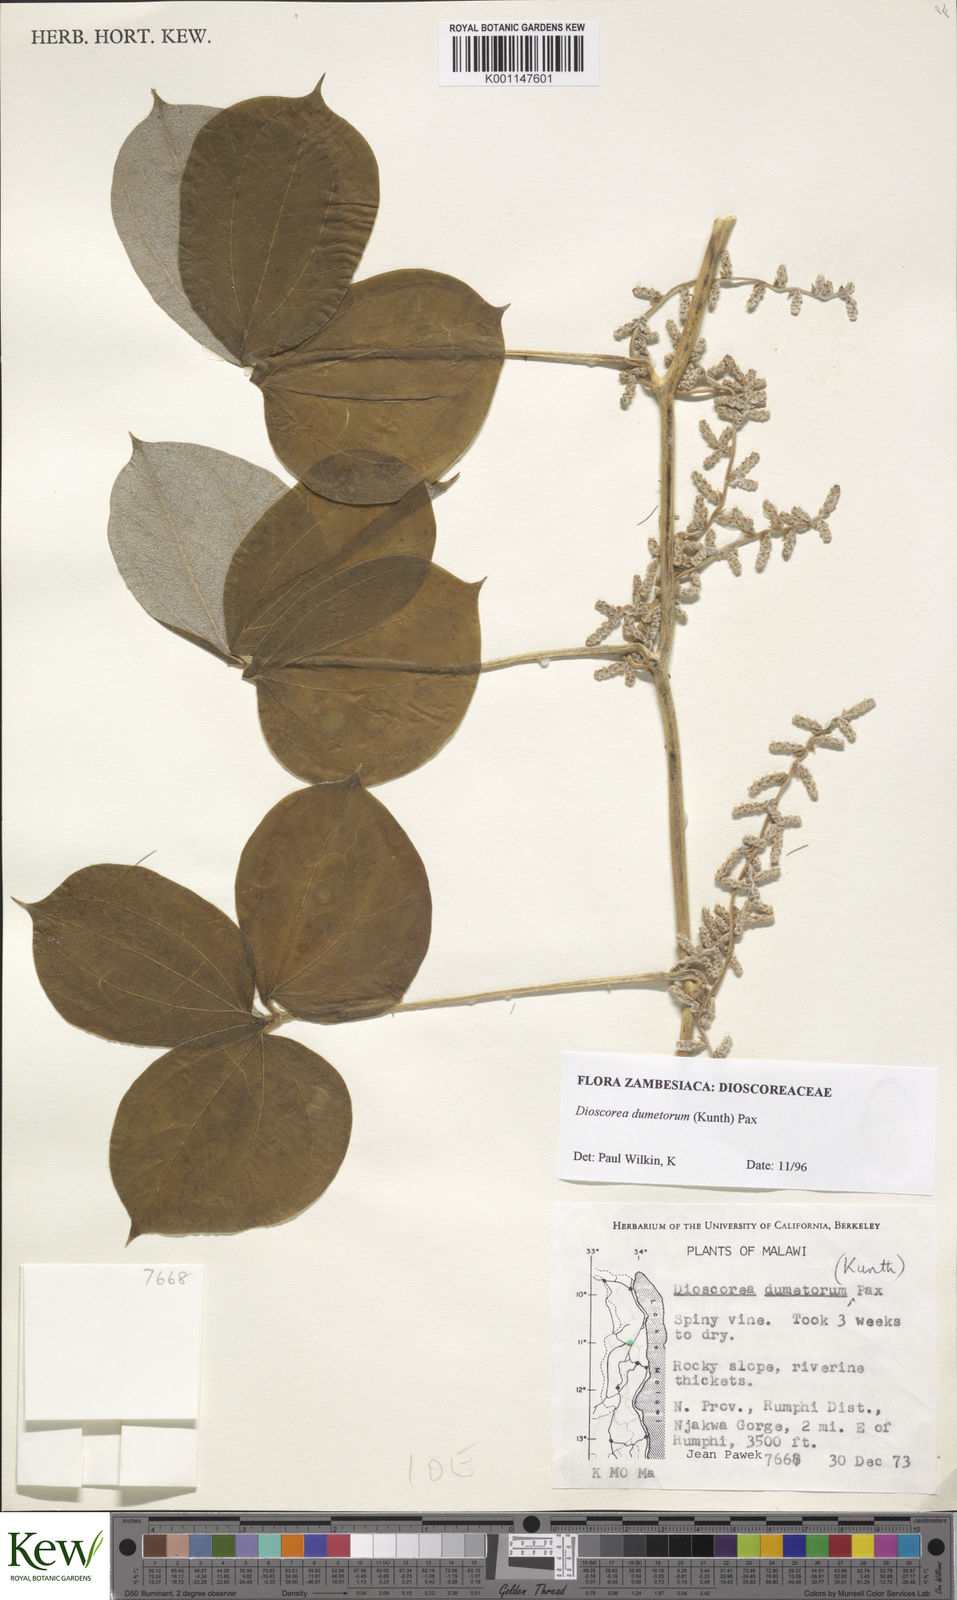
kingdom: Plantae
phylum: Tracheophyta
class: Liliopsida
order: Dioscoreales
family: Dioscoreaceae
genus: Dioscorea
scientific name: Dioscorea dumetorum
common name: African bitter yam
